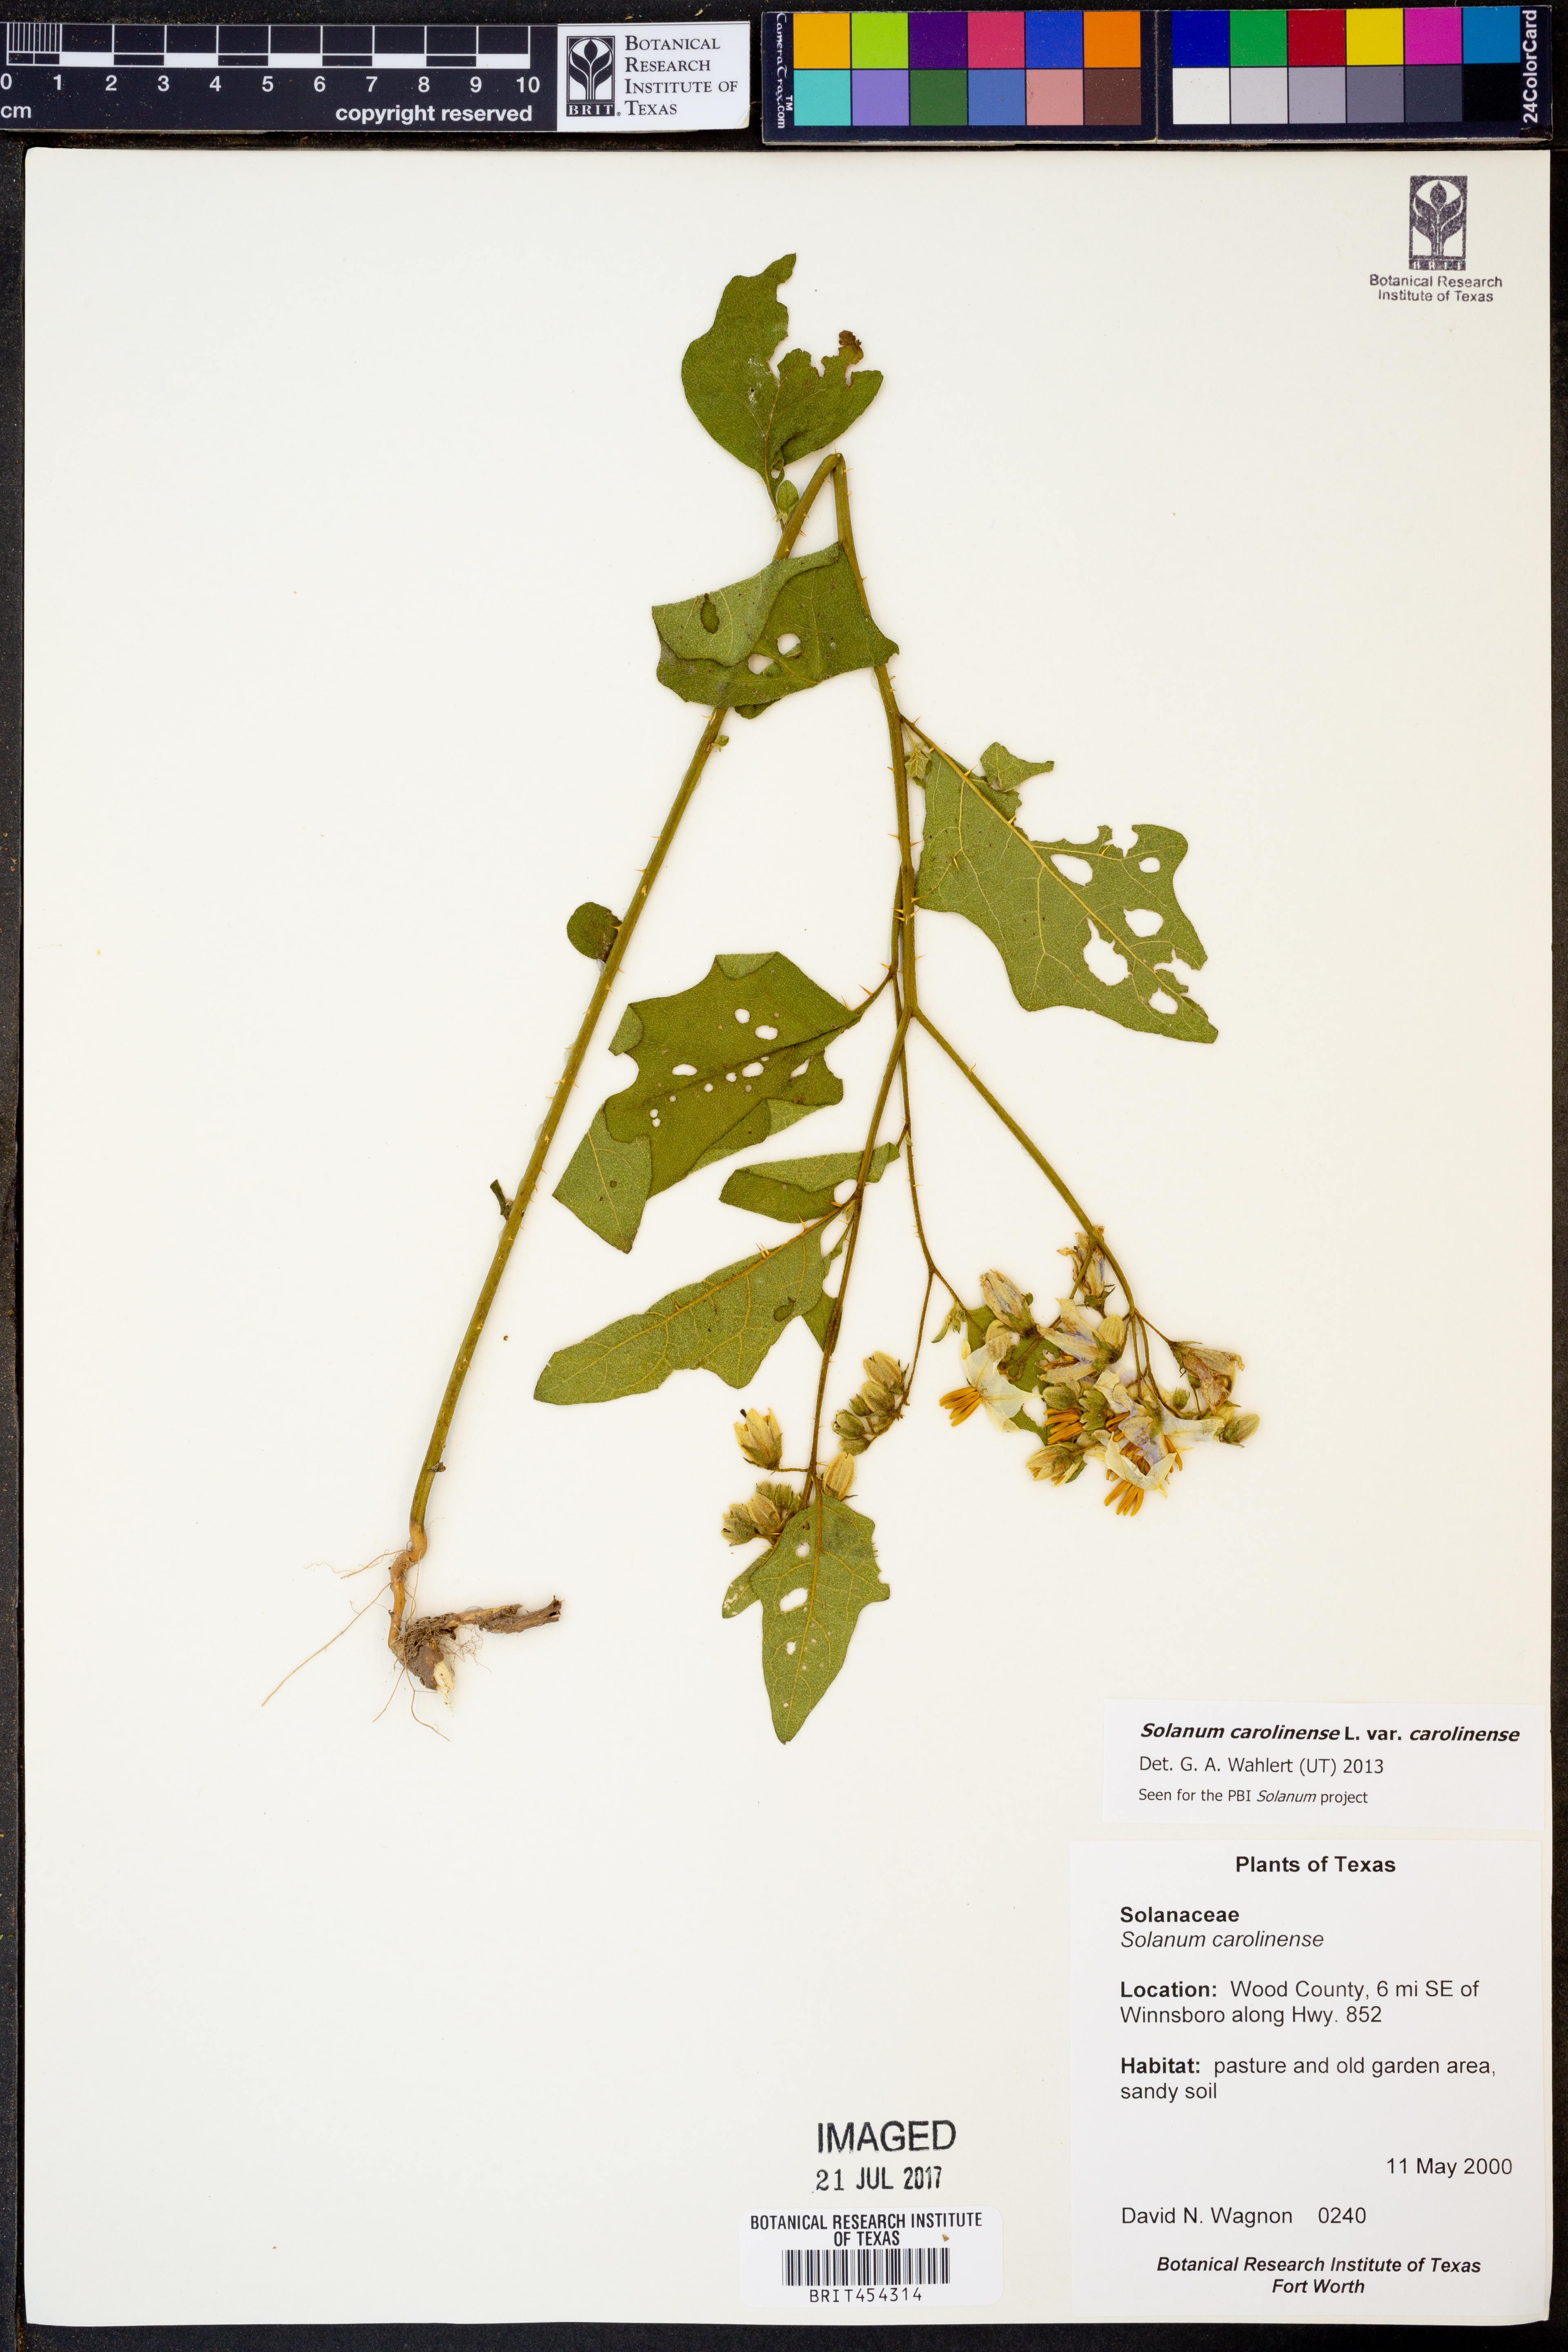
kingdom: Plantae
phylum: Tracheophyta
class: Magnoliopsida
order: Solanales
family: Solanaceae
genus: Solanum
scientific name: Solanum carolinense
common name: Horse-nettle
